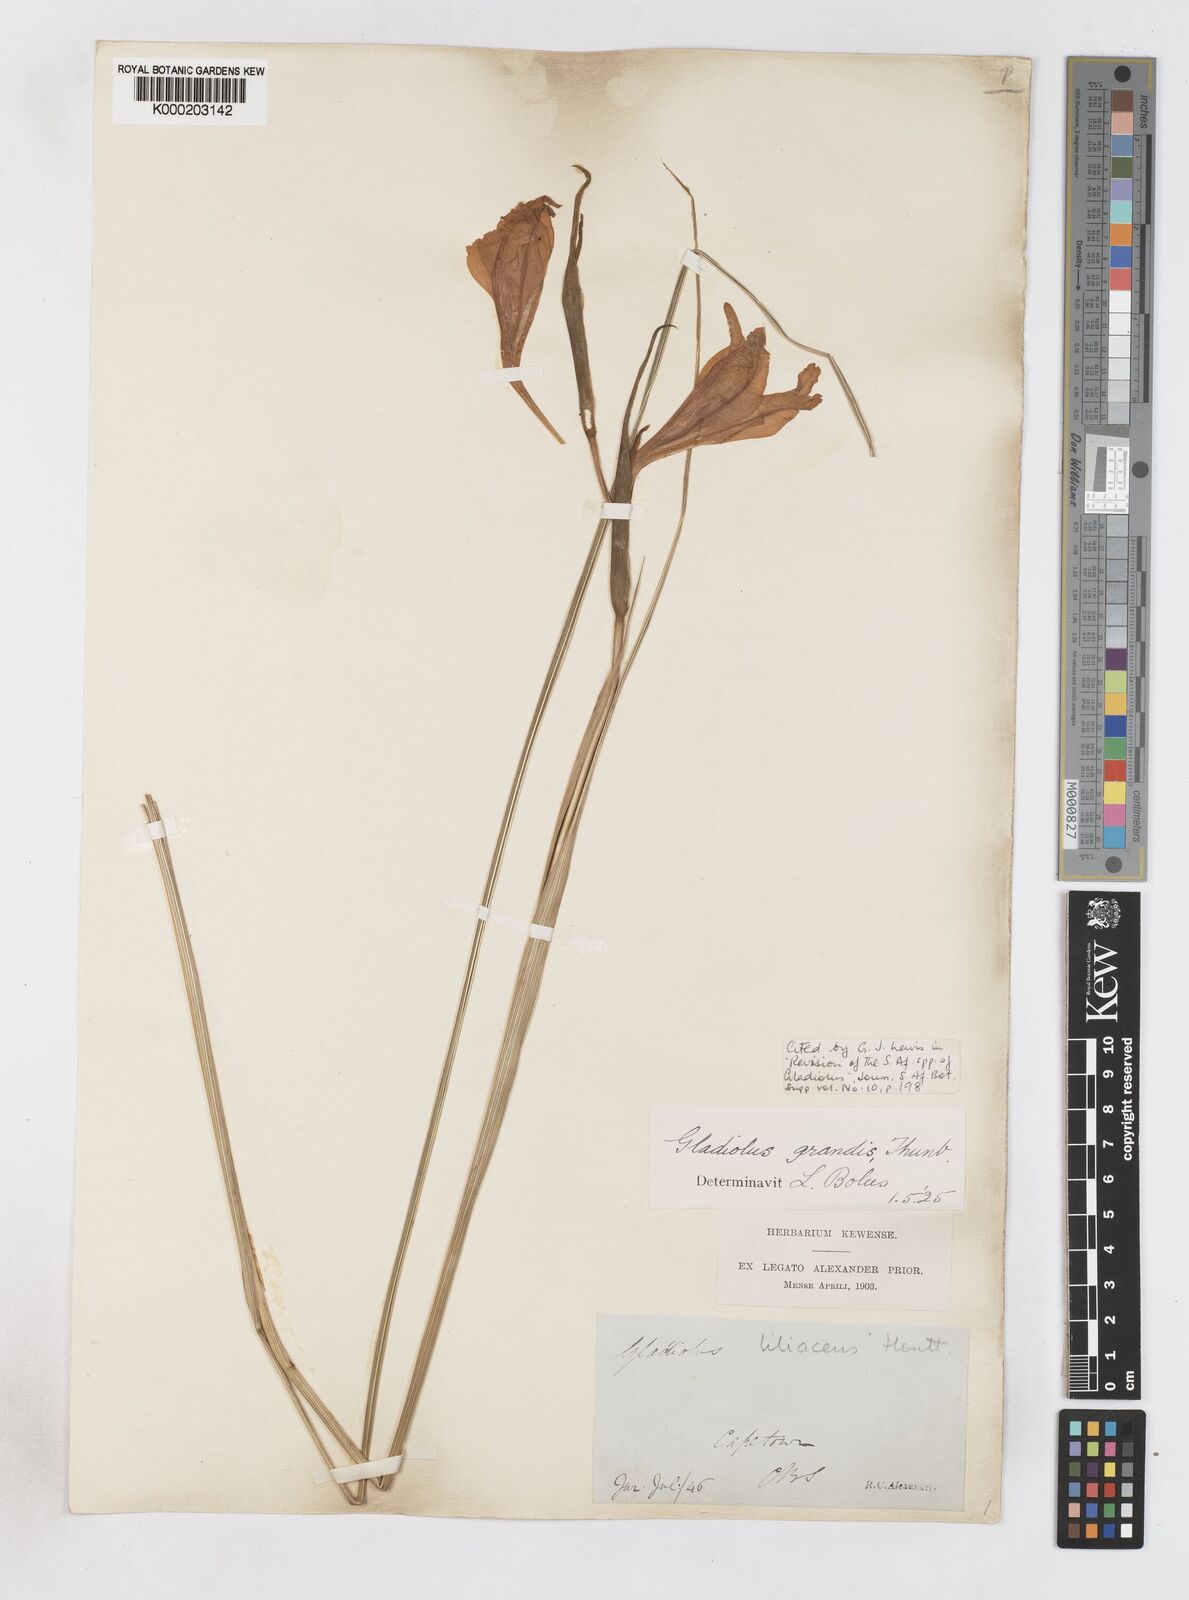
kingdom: Plantae
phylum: Tracheophyta
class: Liliopsida
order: Asparagales
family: Iridaceae
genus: Gladiolus
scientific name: Gladiolus liliaceus
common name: Large brown afrikaner
